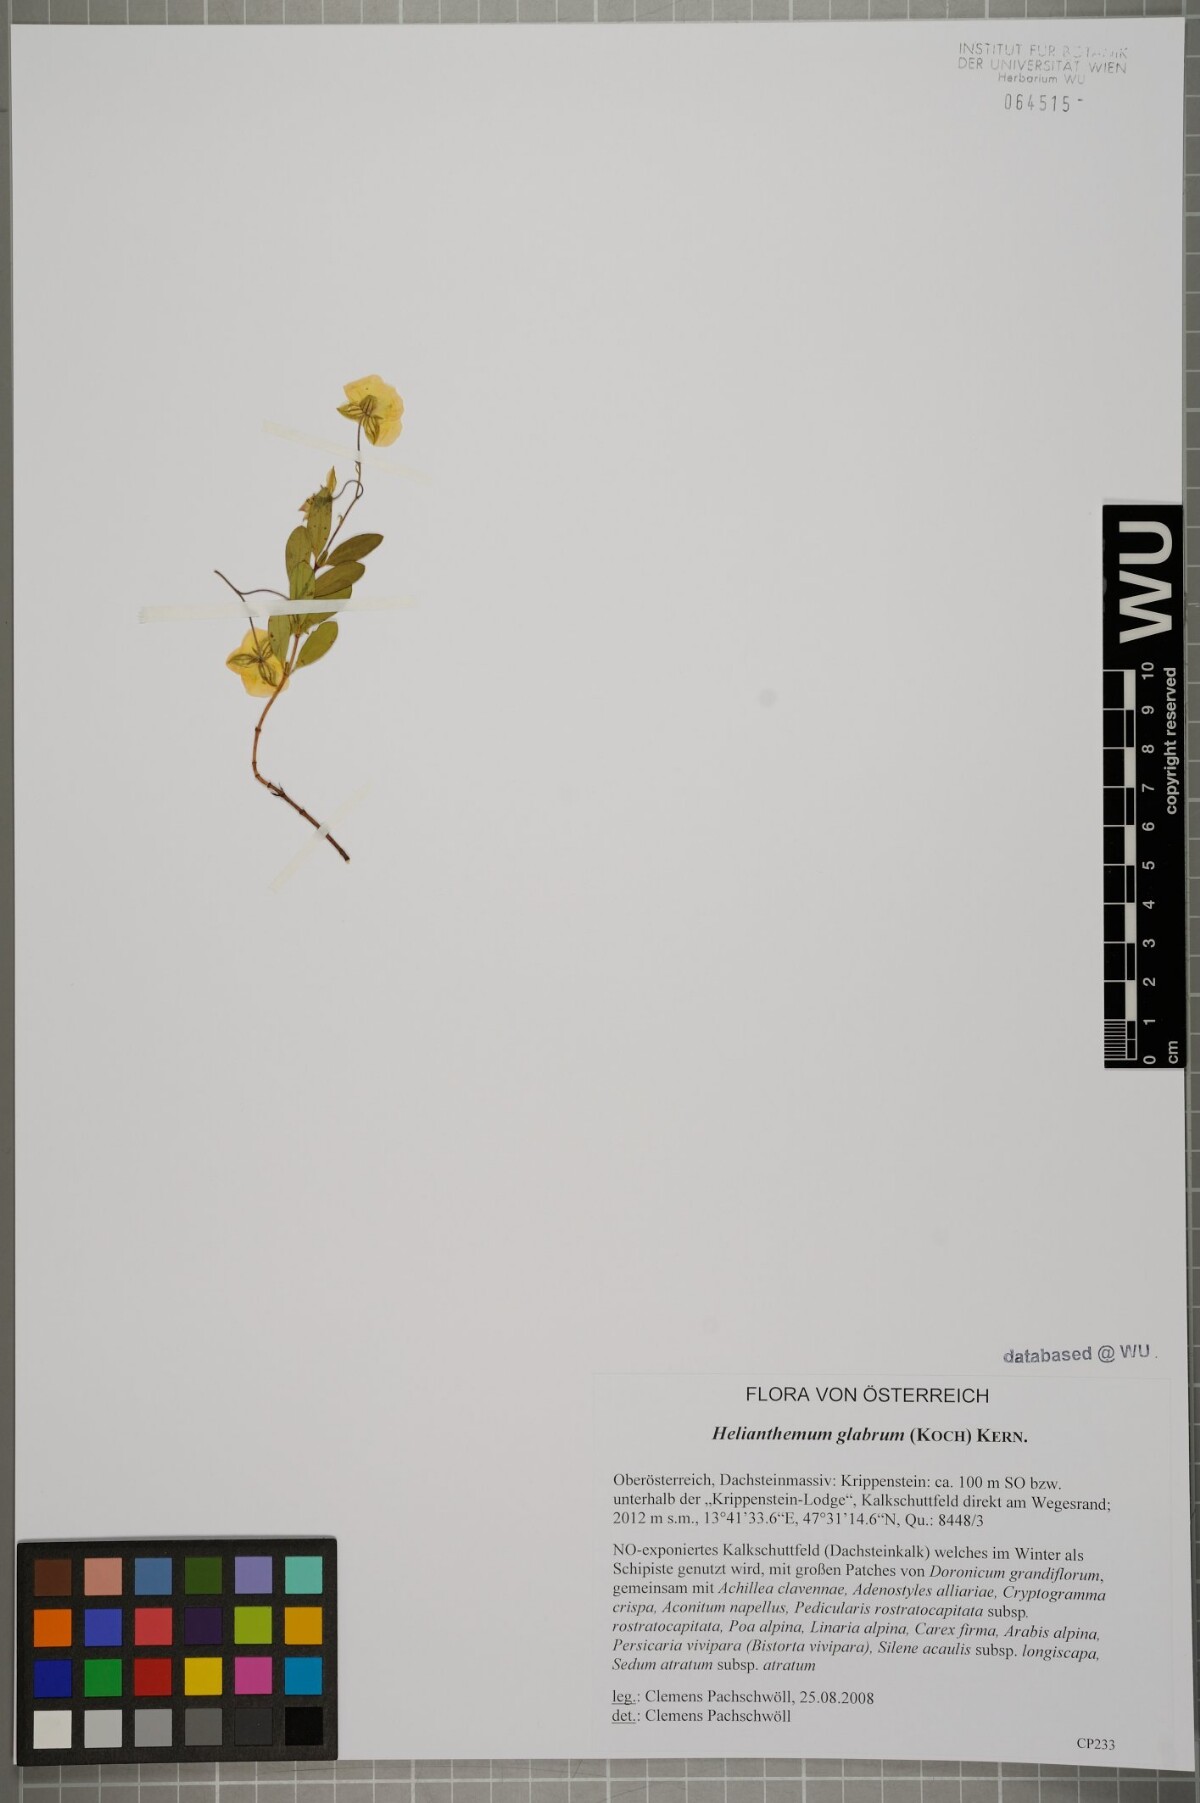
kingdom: Plantae
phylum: Tracheophyta
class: Magnoliopsida
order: Malvales
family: Cistaceae
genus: Helianthemum
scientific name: Helianthemum nummularium
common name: Common rock-rose
